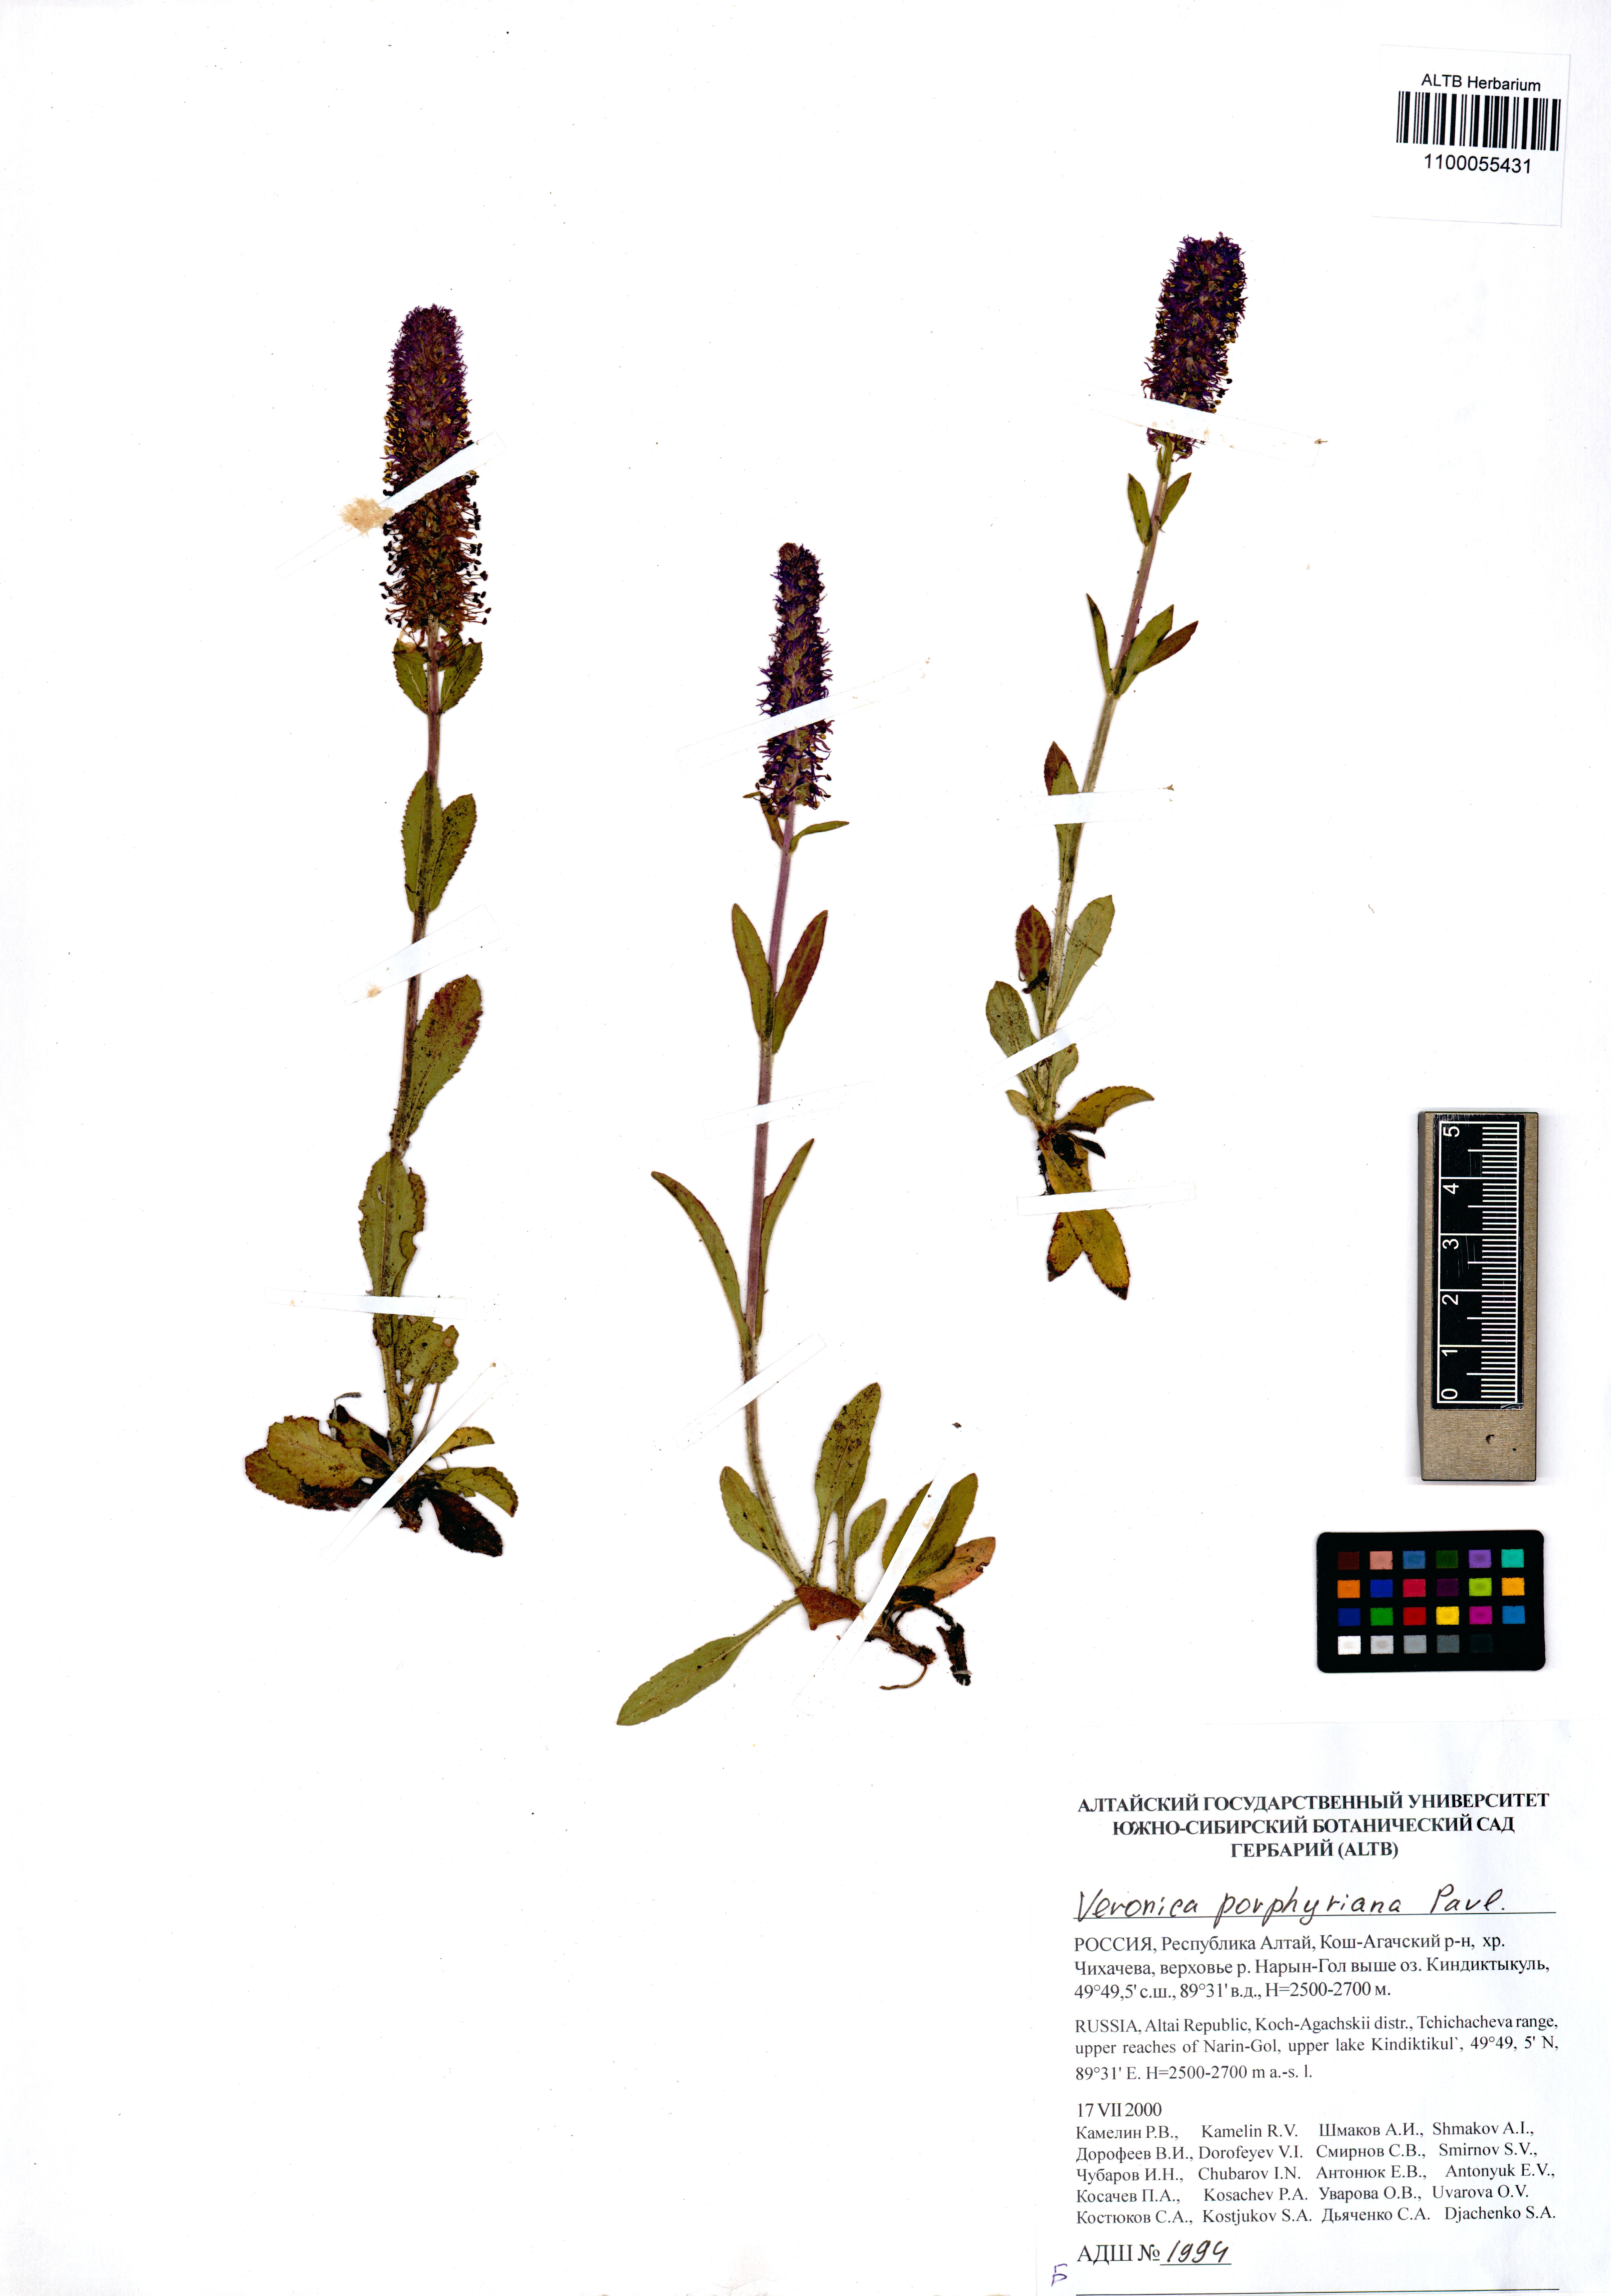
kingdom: Plantae
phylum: Tracheophyta
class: Magnoliopsida
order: Lamiales
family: Plantaginaceae
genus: Veronica
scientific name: Veronica porphyriana
